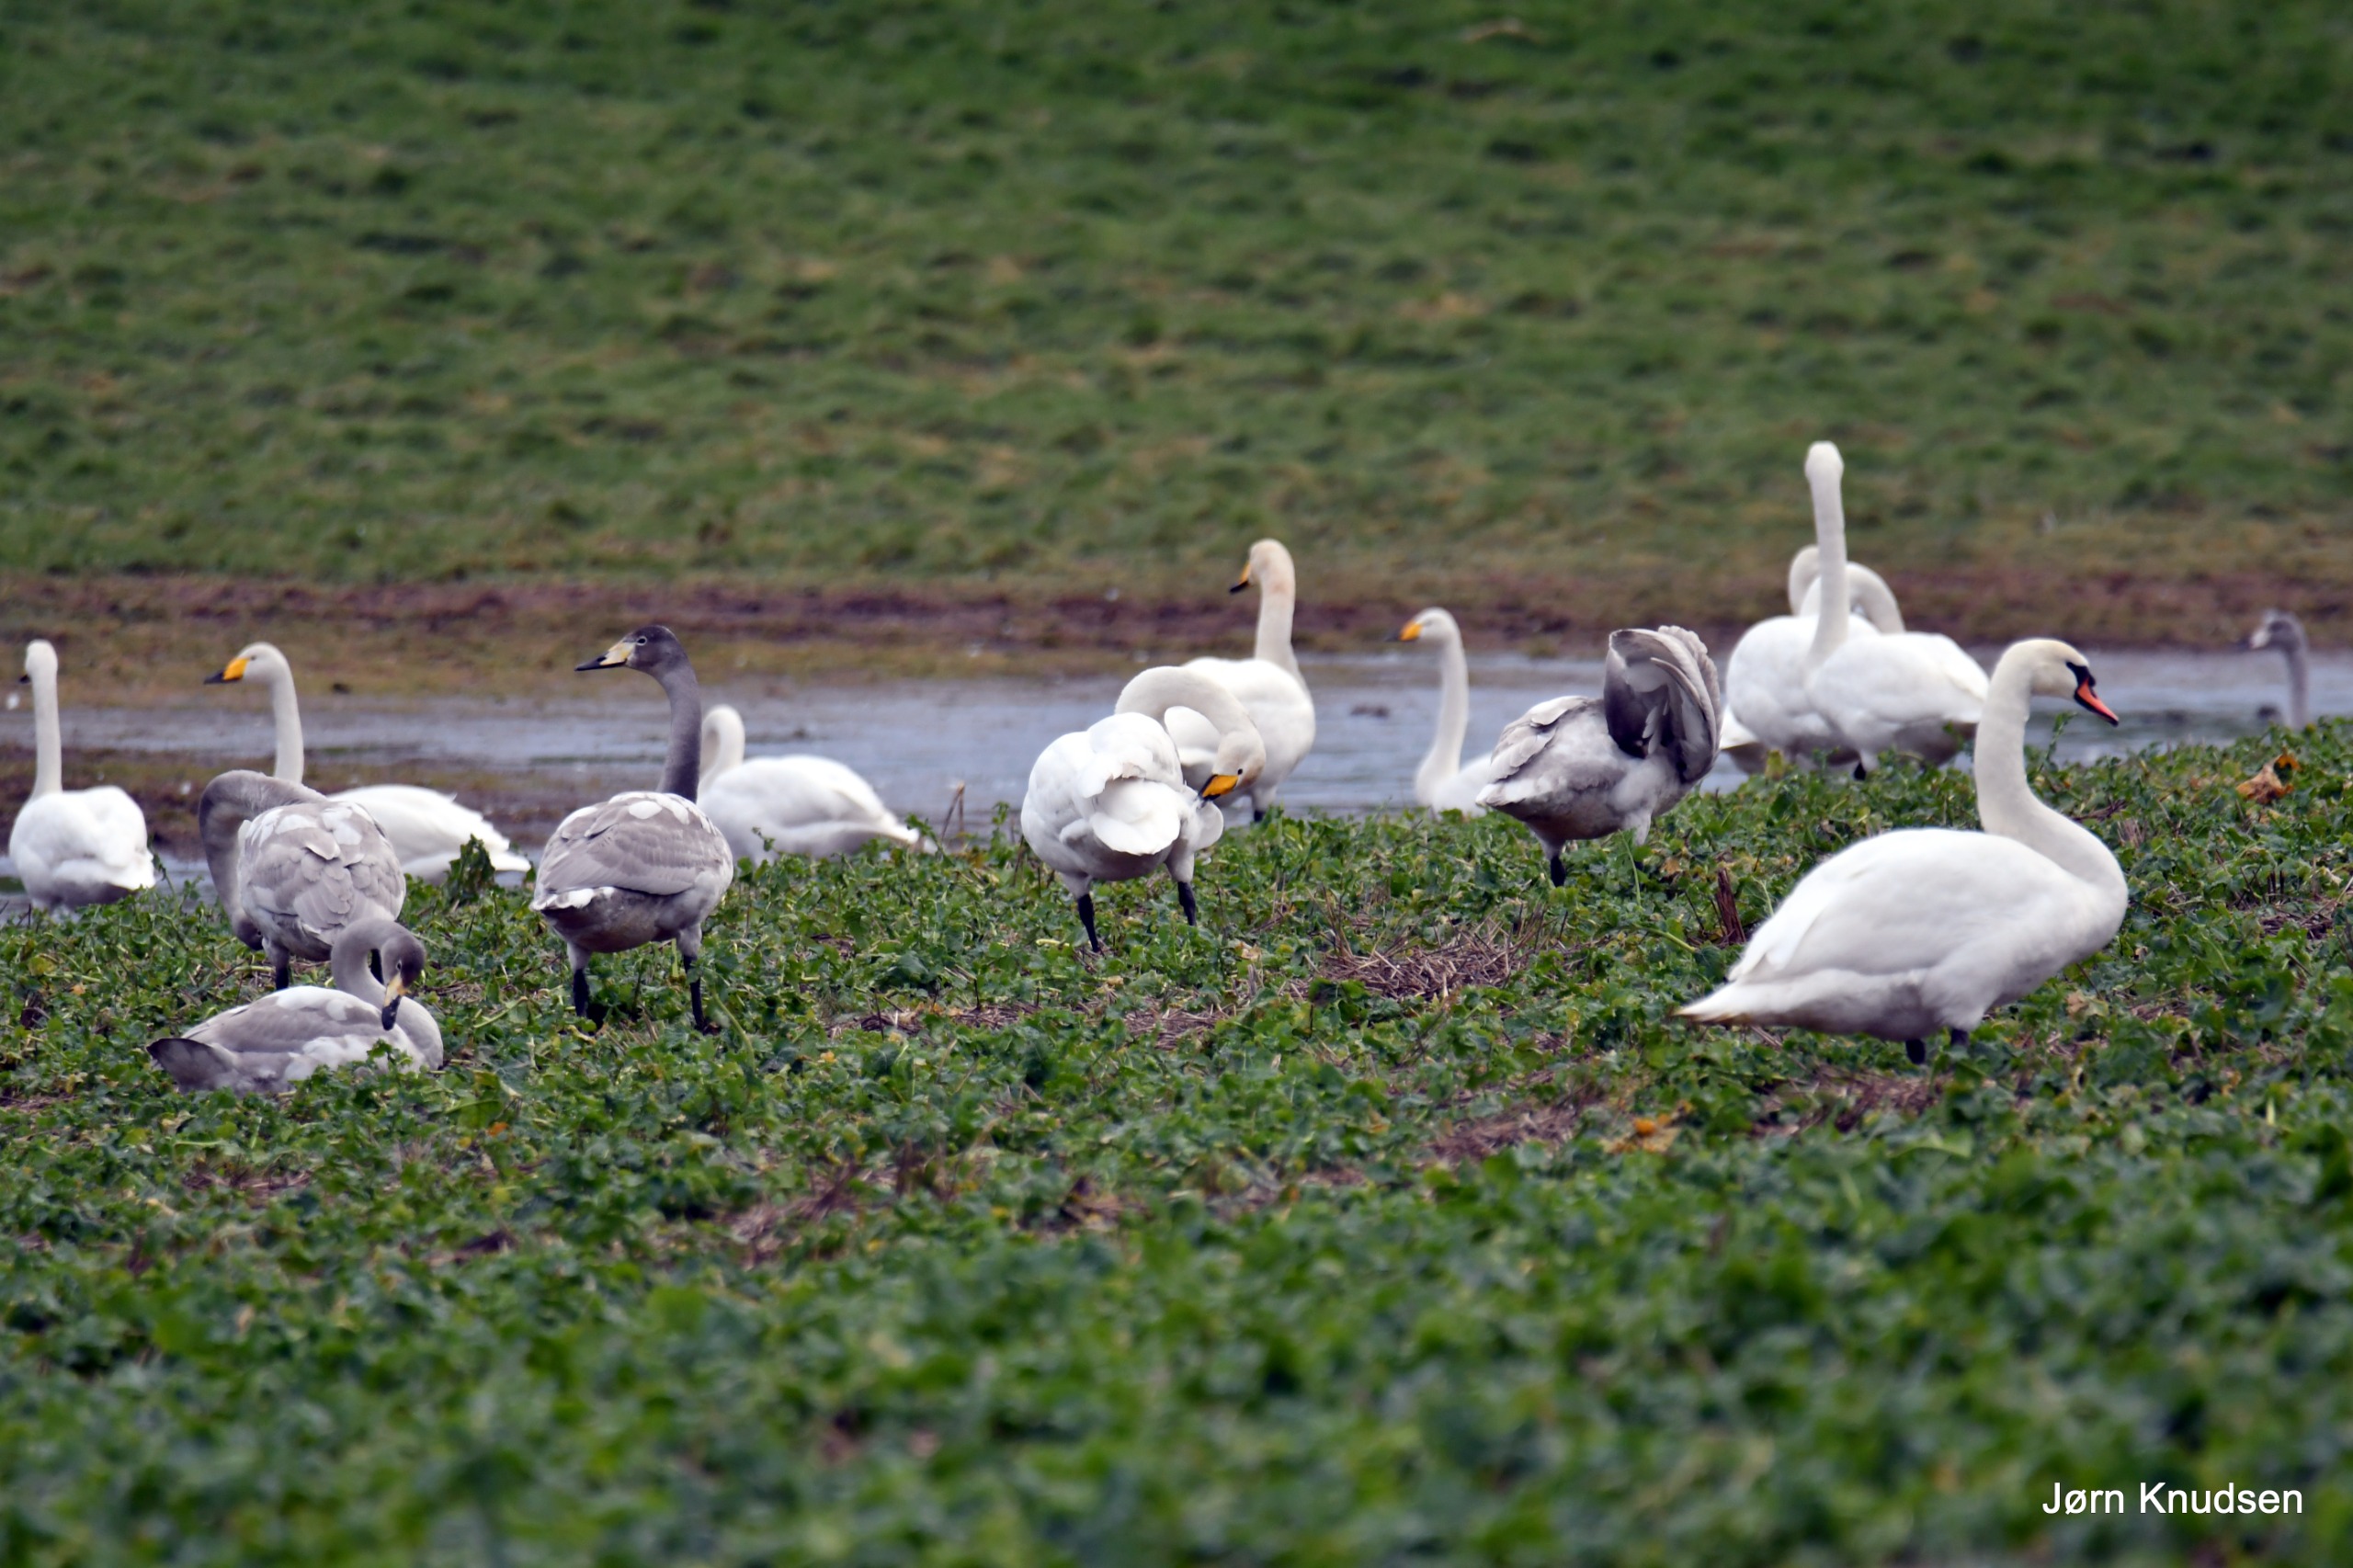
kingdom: Animalia
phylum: Chordata
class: Aves
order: Anseriformes
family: Anatidae
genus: Cygnus
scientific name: Cygnus olor
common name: Knopsvane
